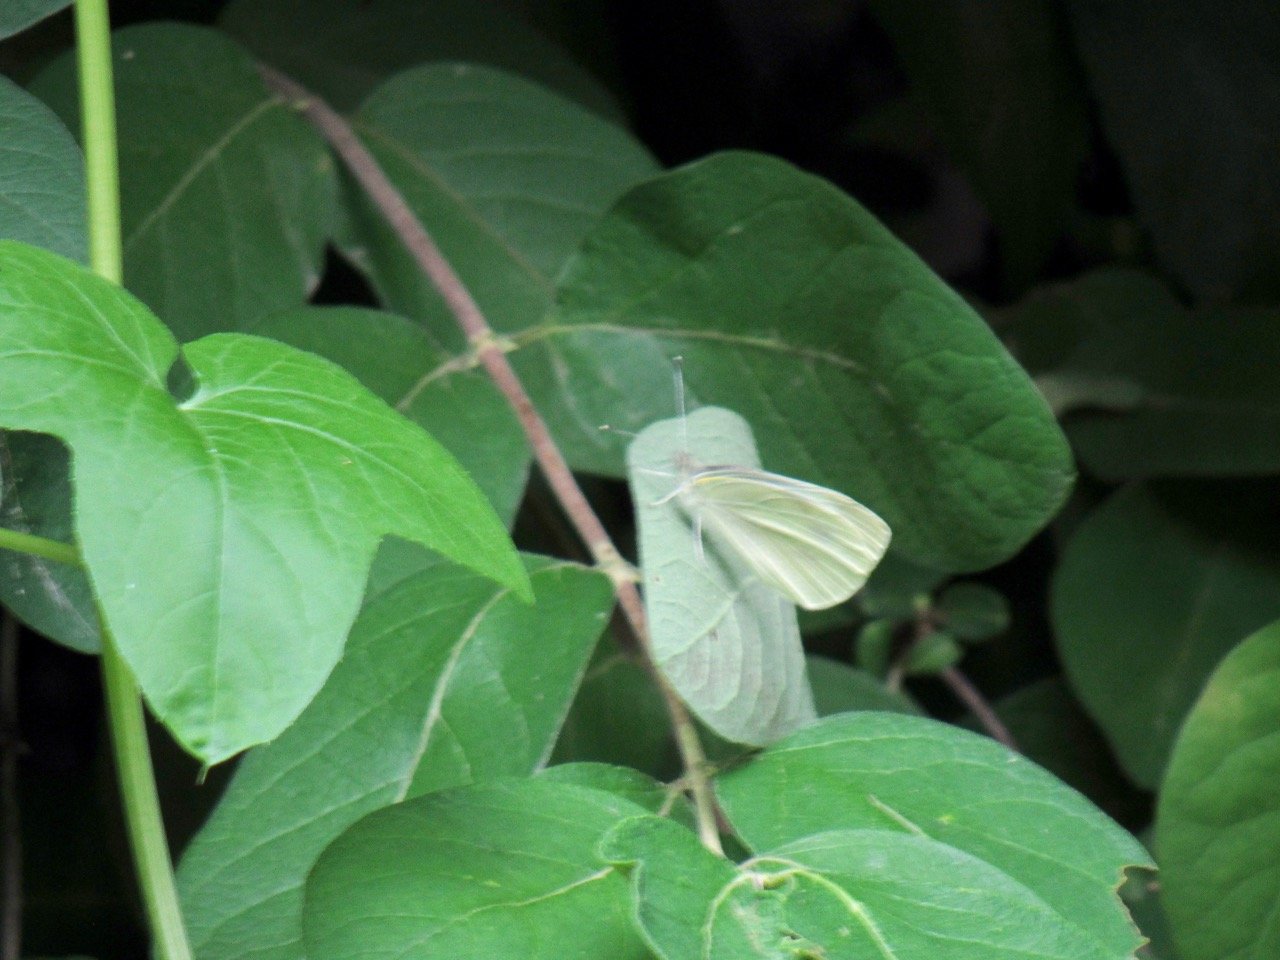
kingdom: Animalia
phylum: Arthropoda
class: Insecta
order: Lepidoptera
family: Pieridae
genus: Pieris
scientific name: Pieris rapae
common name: Cabbage White
